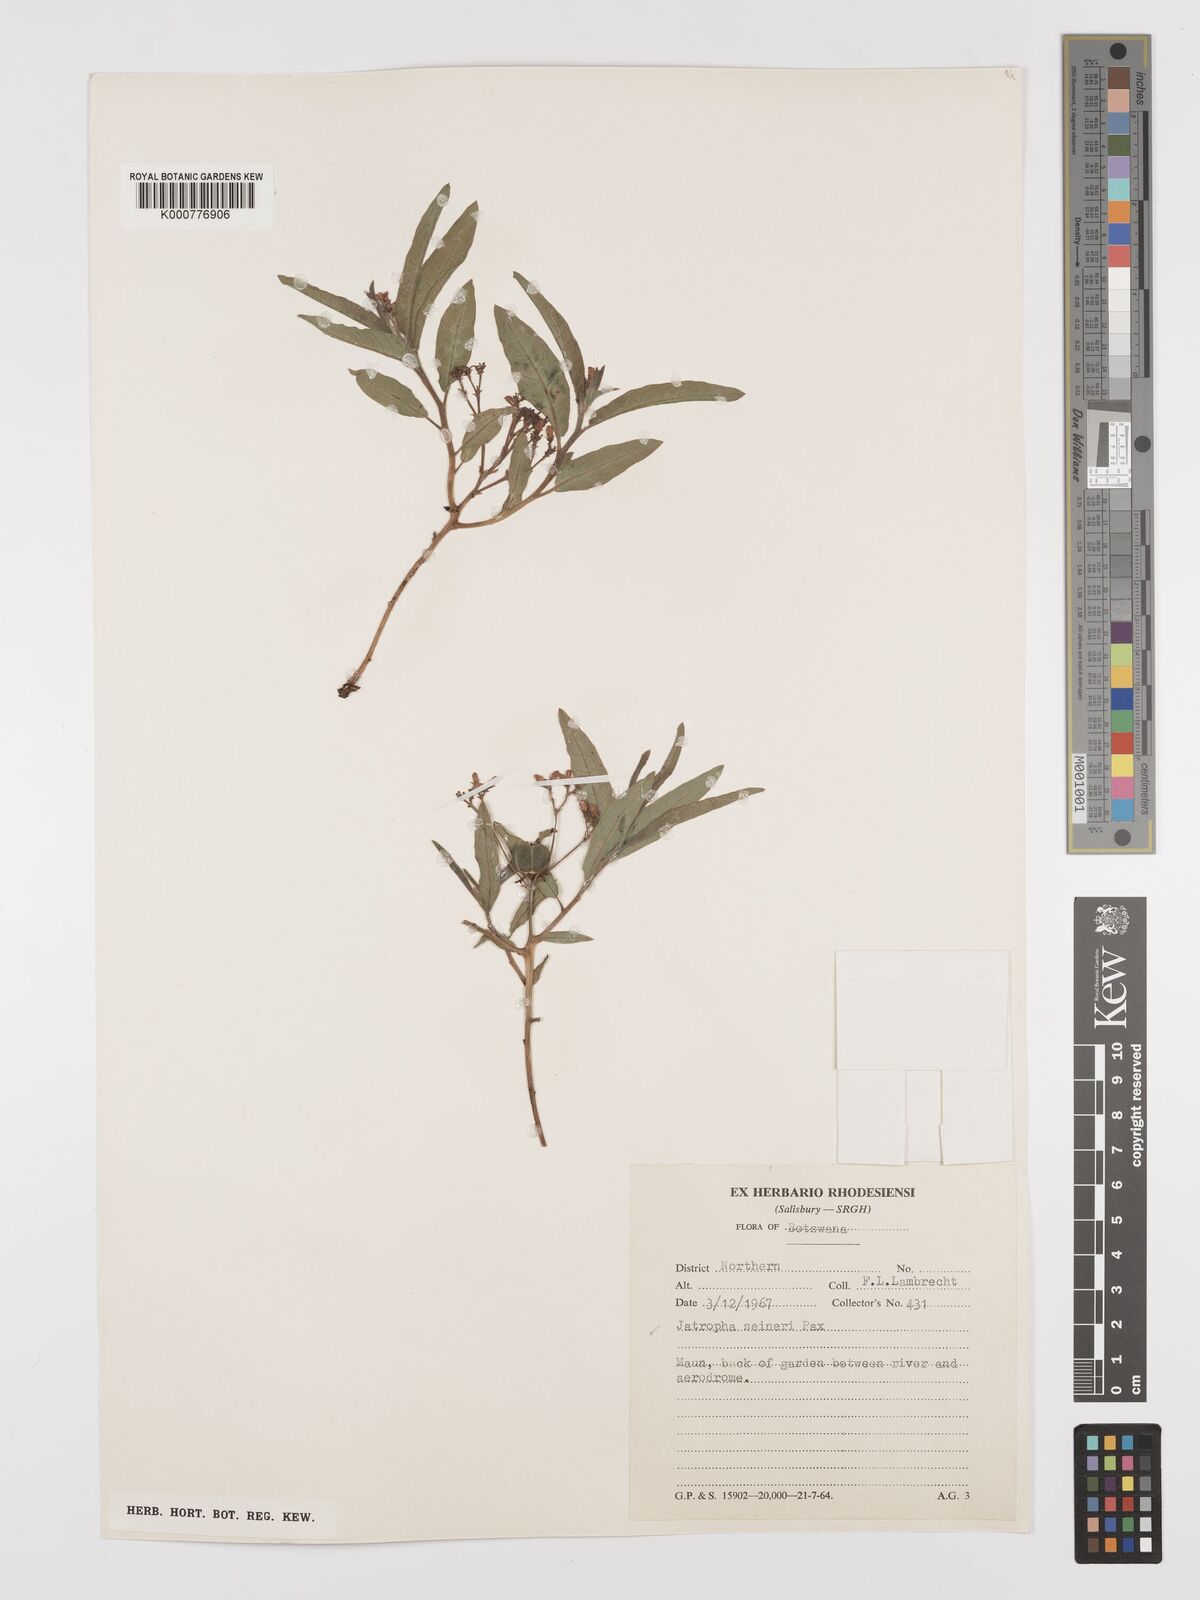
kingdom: Plantae
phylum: Tracheophyta
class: Magnoliopsida
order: Malpighiales
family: Euphorbiaceae
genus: Jatropha
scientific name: Jatropha seineri
